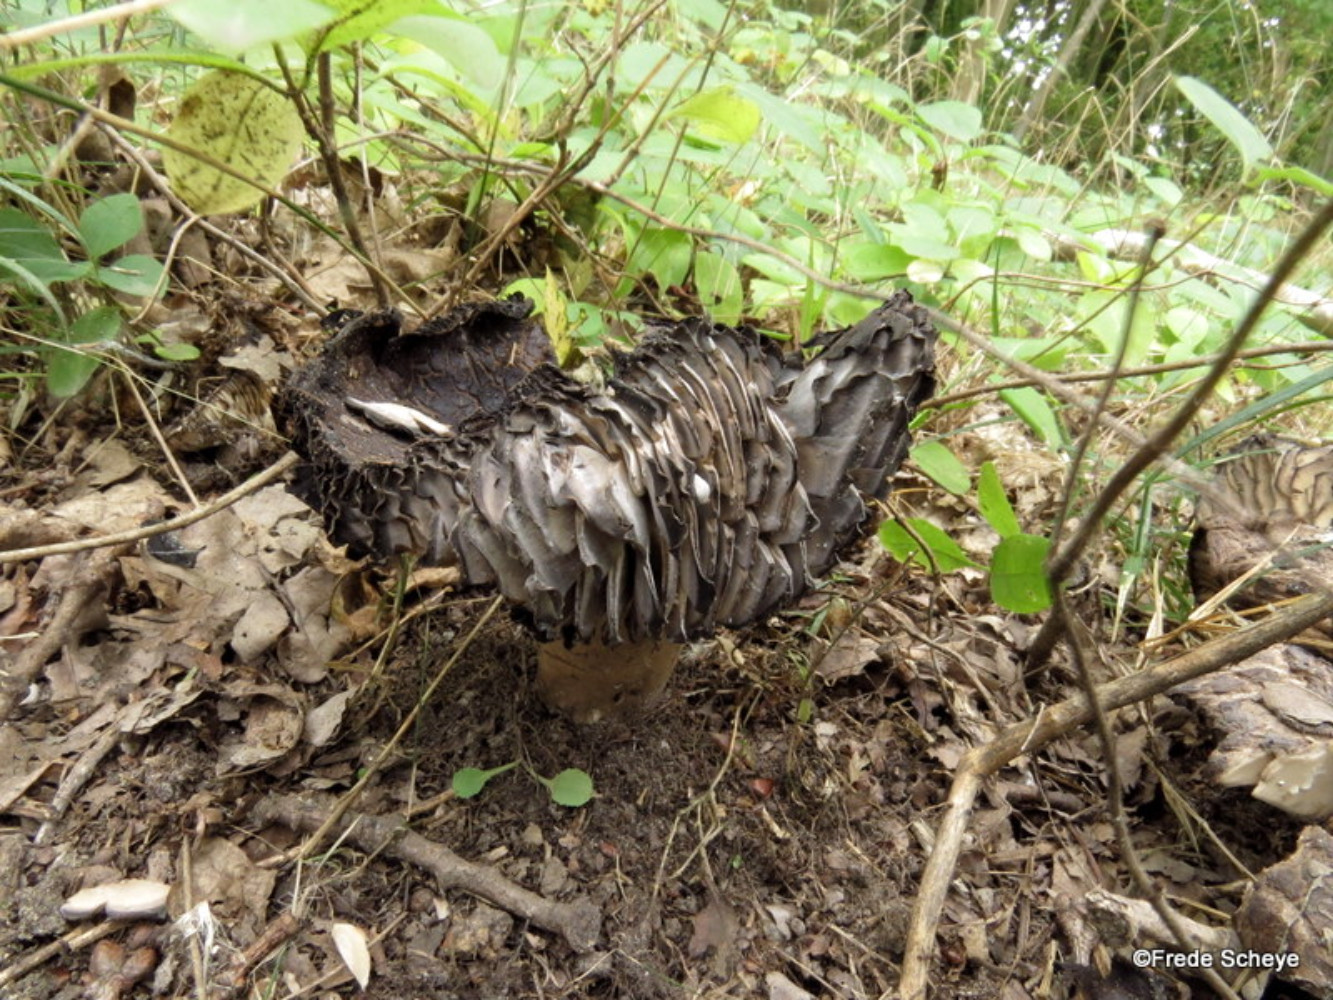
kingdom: Fungi
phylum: Basidiomycota
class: Agaricomycetes
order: Russulales
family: Russulaceae
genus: Russula
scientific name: Russula adusta
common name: sværtende skørhat
